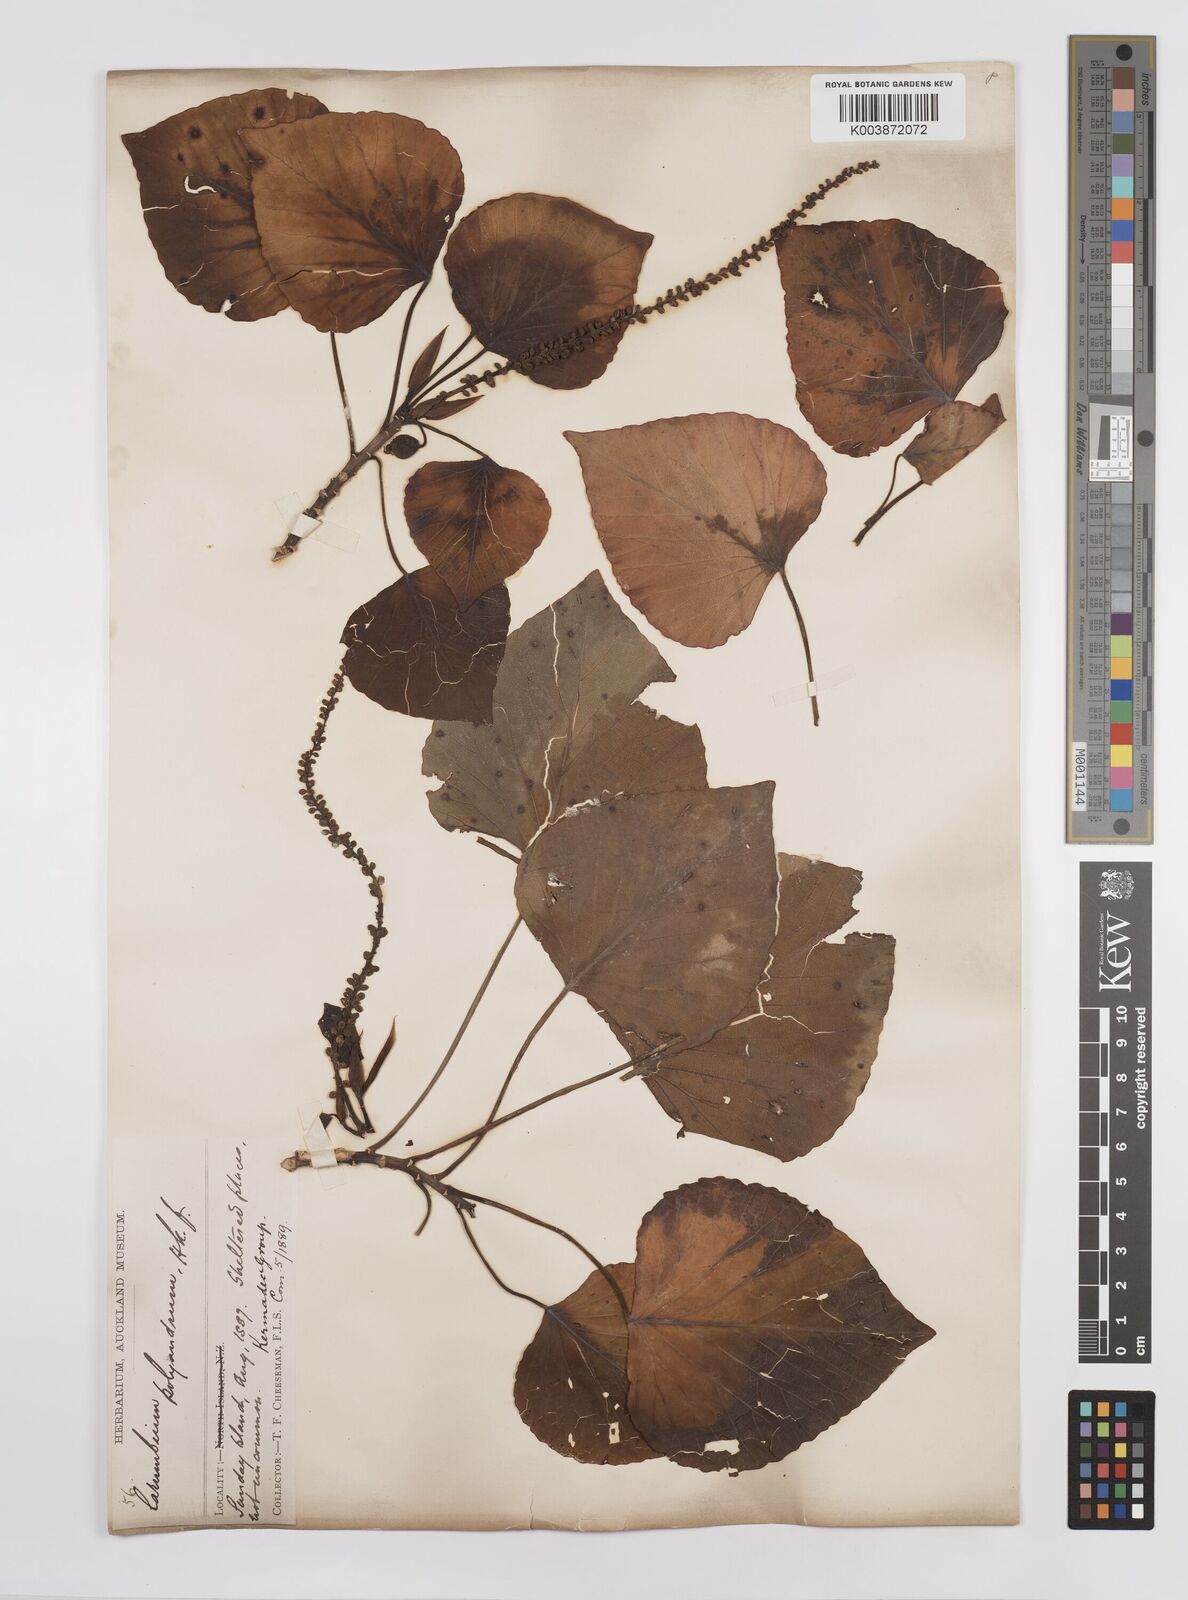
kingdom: Plantae
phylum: Tracheophyta
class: Magnoliopsida
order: Malpighiales
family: Euphorbiaceae
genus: Homalanthus
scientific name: Homalanthus polyandrus
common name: Kermadec poplar
